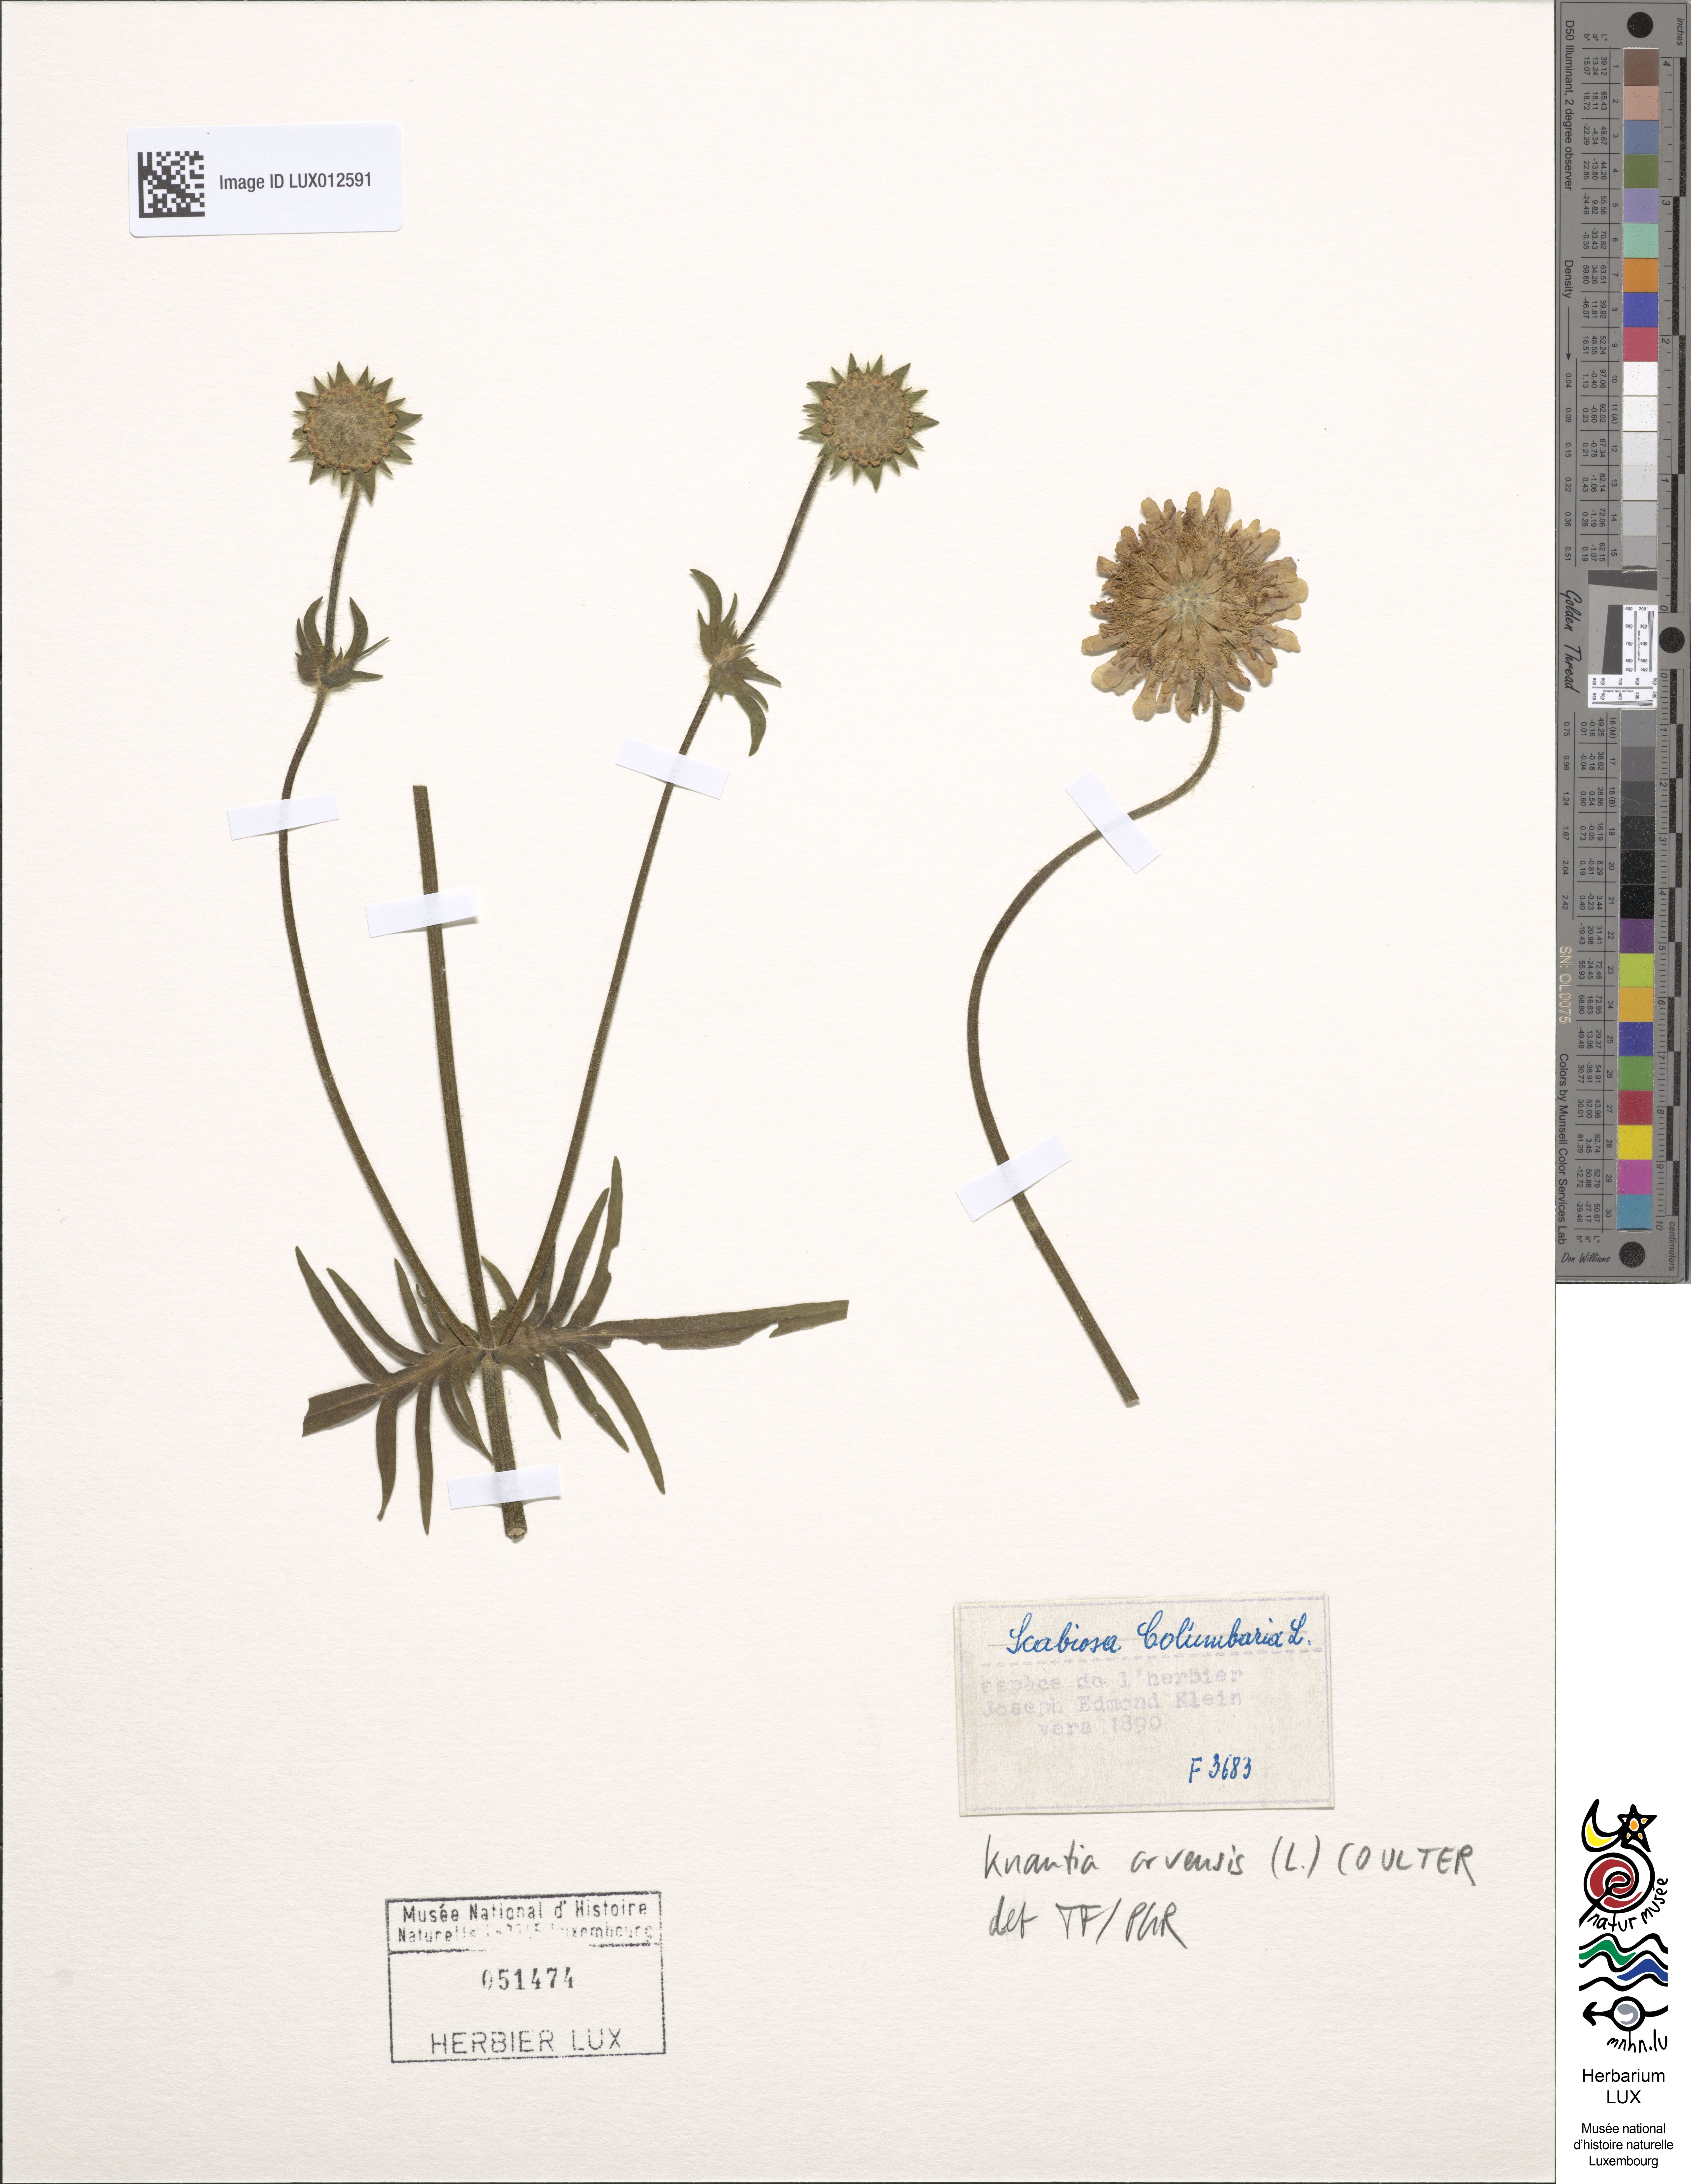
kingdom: Plantae
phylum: Tracheophyta
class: Magnoliopsida
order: Dipsacales
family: Caprifoliaceae
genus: Knautia
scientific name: Knautia arvensis
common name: Field scabiosa
